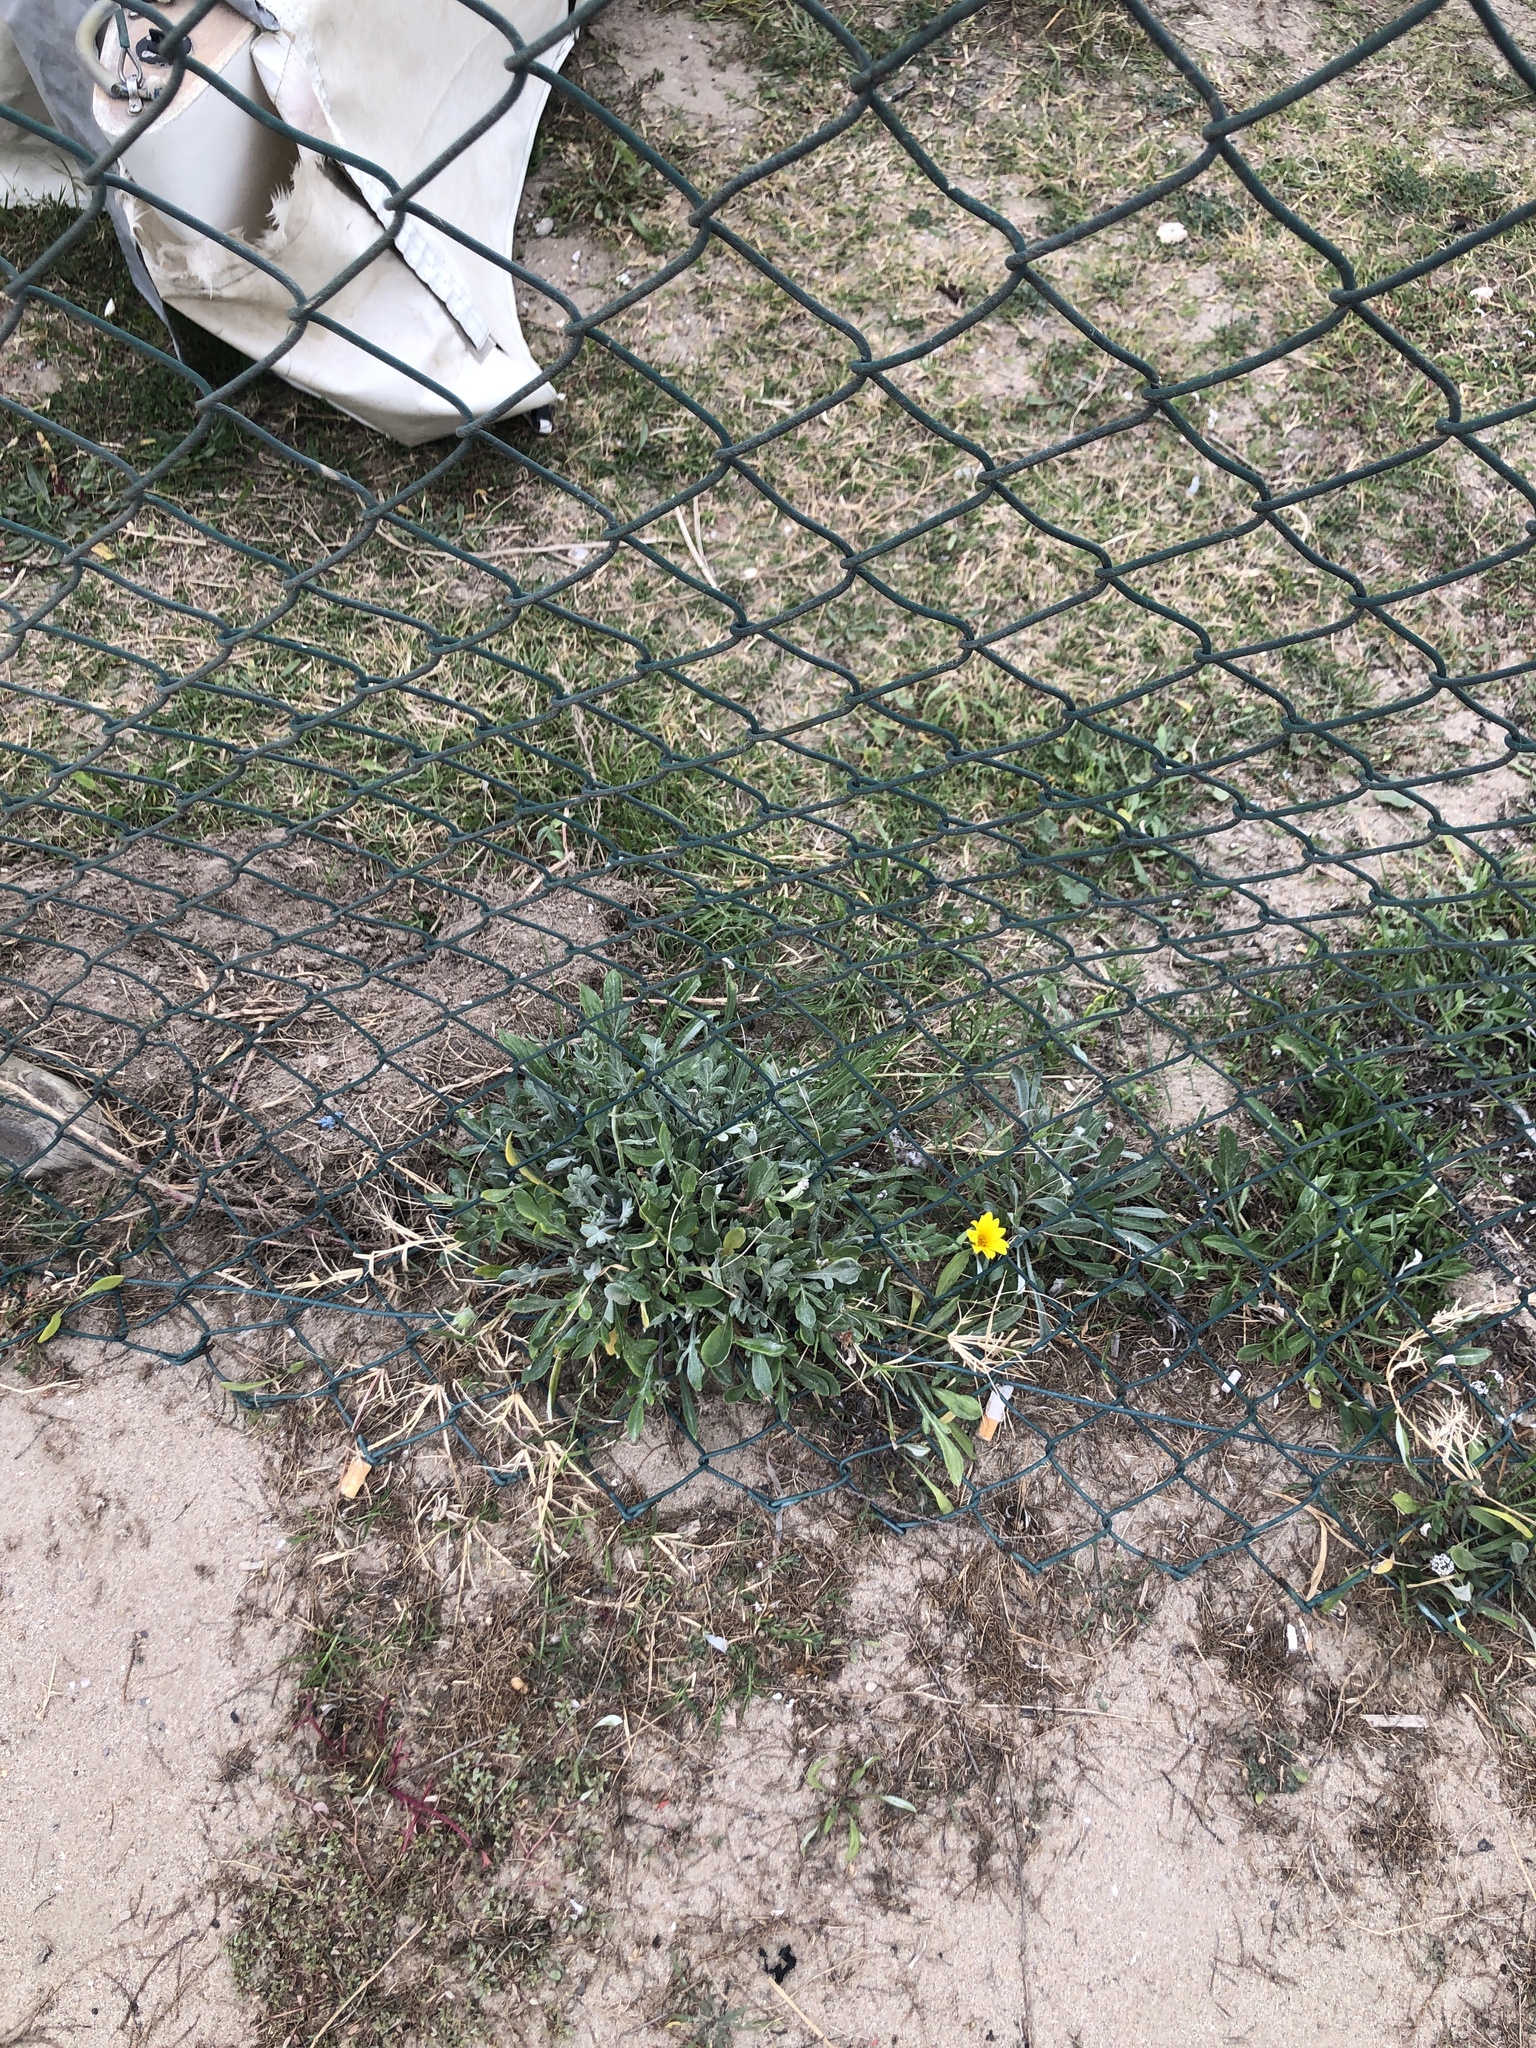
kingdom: Plantae
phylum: Tracheophyta
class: Magnoliopsida
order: Asterales
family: Asteraceae
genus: Gazania
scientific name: Gazania rigens
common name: Treasureflower
